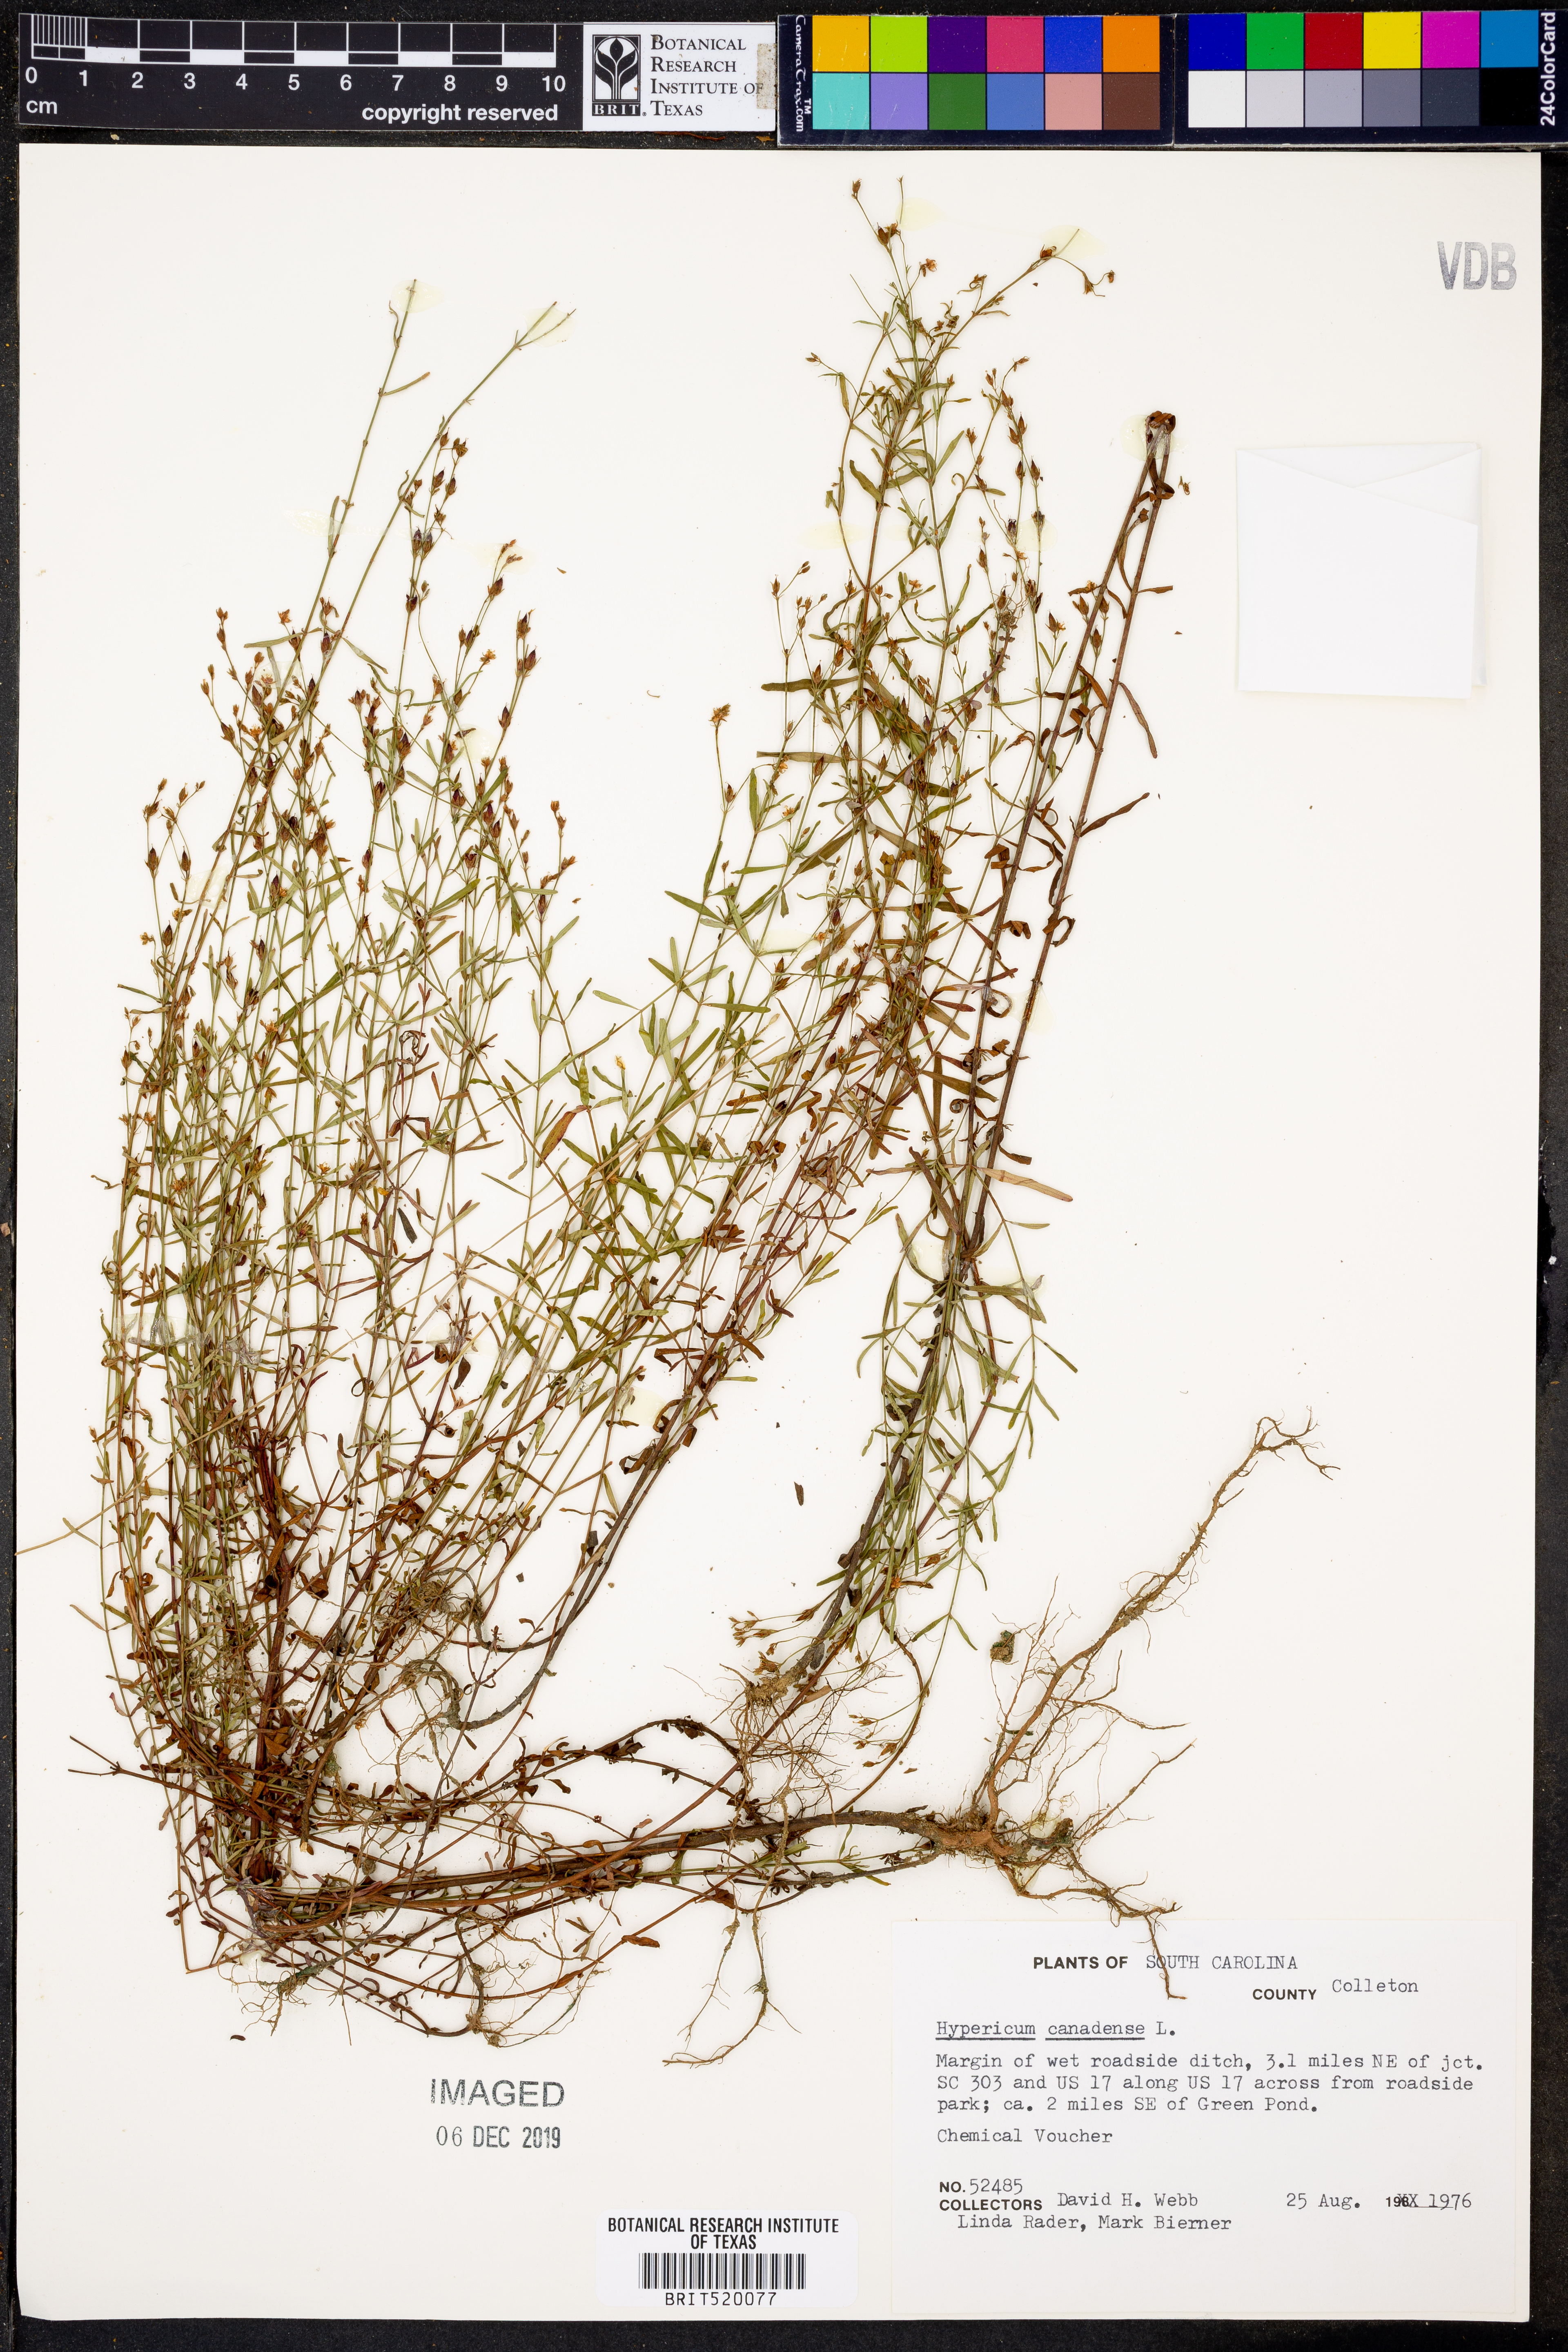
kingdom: Plantae
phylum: Tracheophyta
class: Magnoliopsida
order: Malpighiales
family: Hypericaceae
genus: Hypericum
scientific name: Hypericum canadense
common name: Irish st. john's-wort
